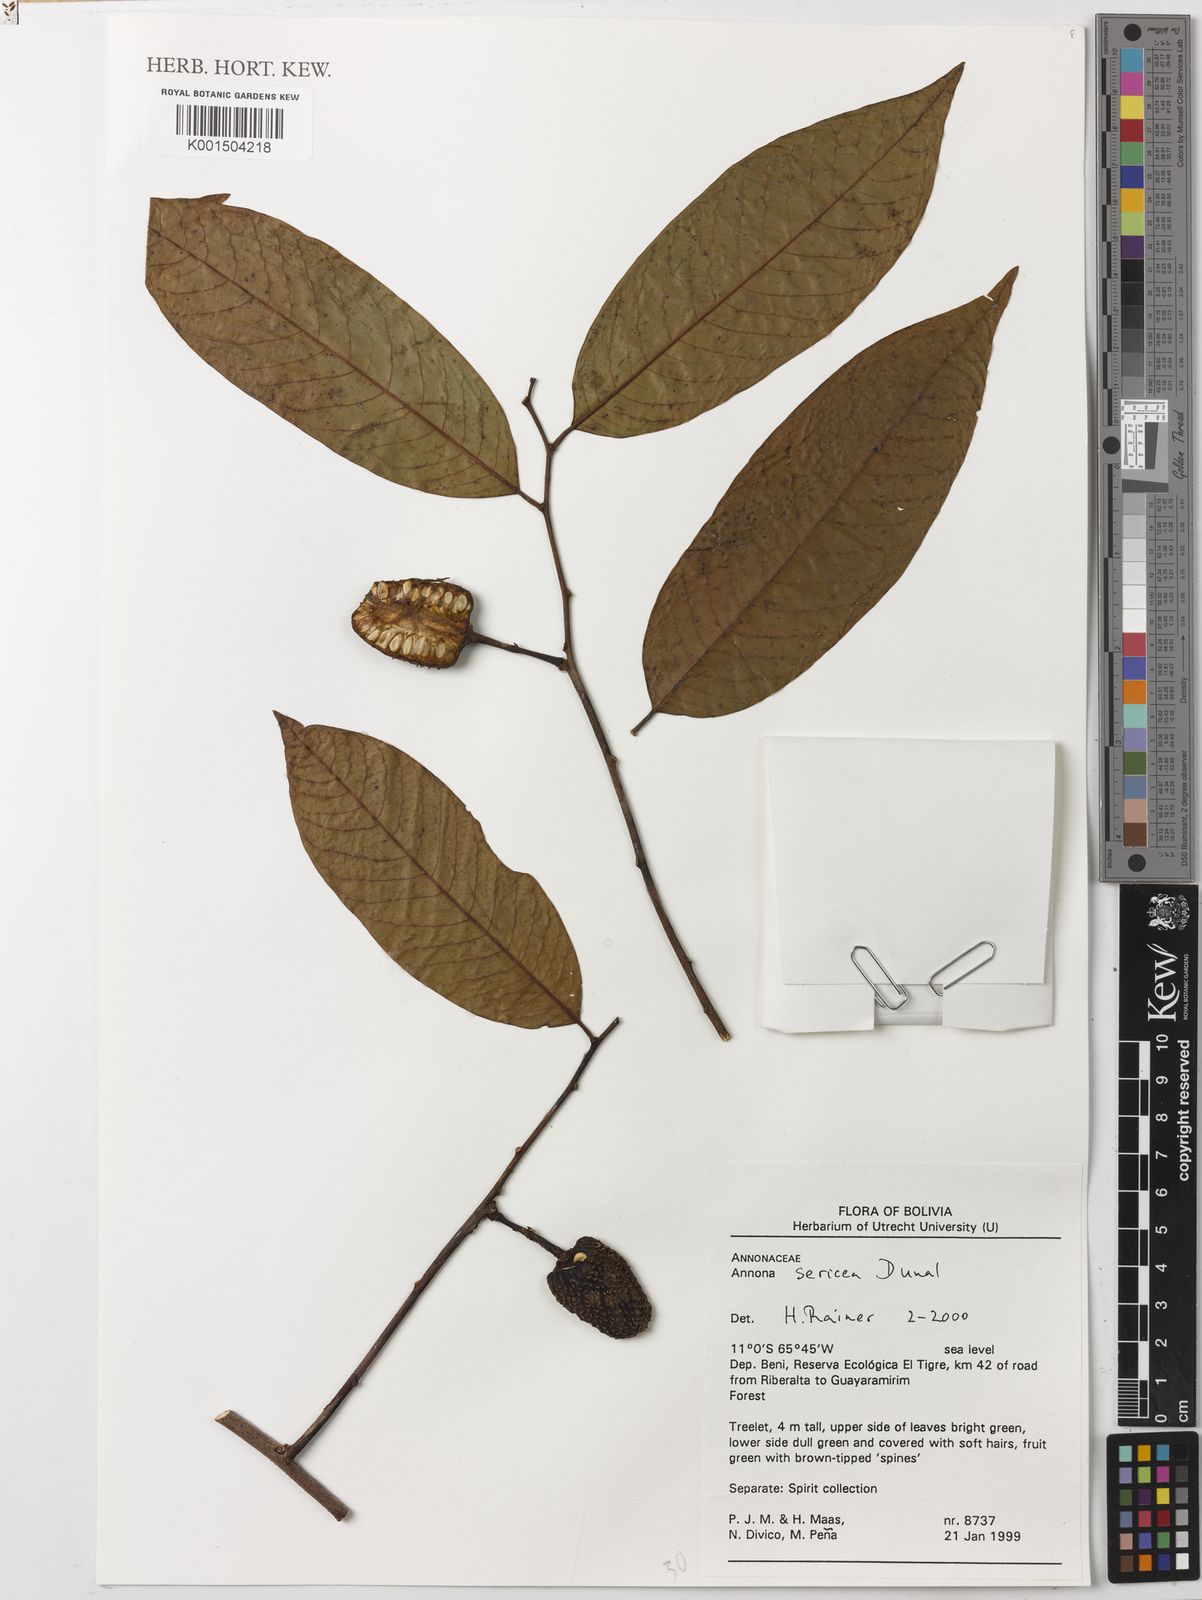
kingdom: Plantae
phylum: Tracheophyta
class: Magnoliopsida
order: Magnoliales
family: Annonaceae
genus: Annona
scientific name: Annona sericea
